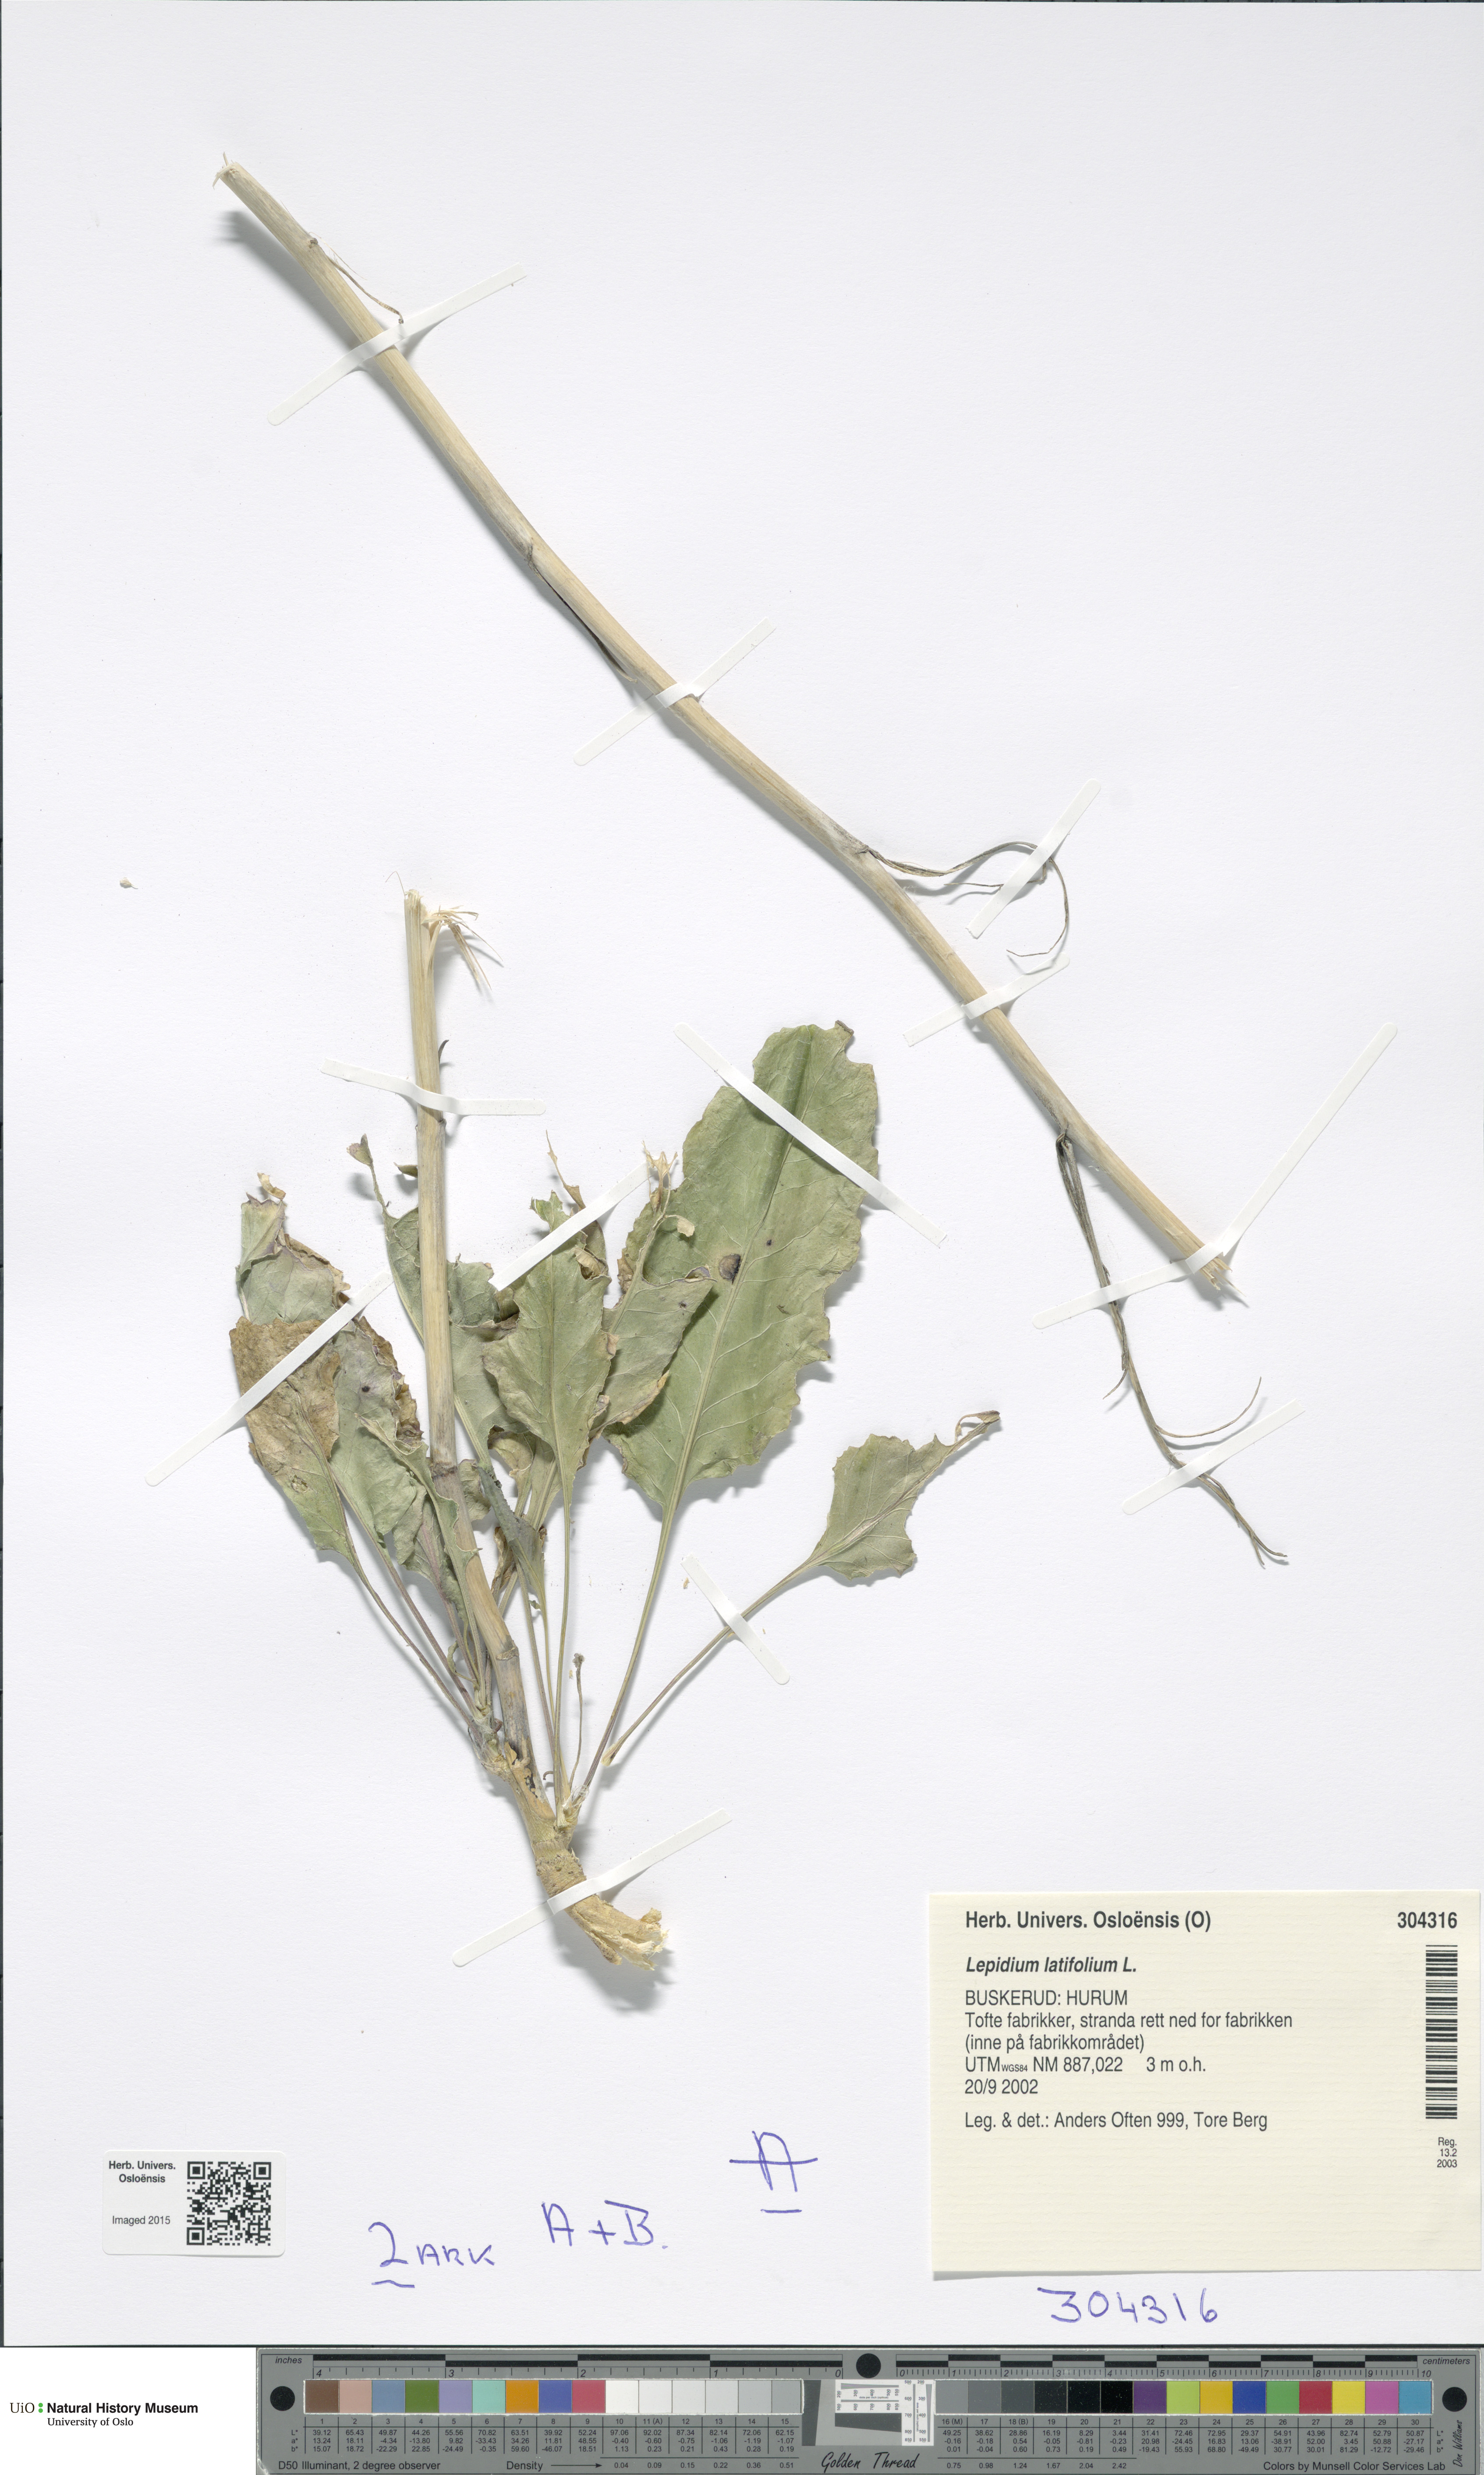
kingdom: Plantae
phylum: Tracheophyta
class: Magnoliopsida
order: Brassicales
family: Brassicaceae
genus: Lepidium
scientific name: Lepidium latifolium
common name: Dittander
